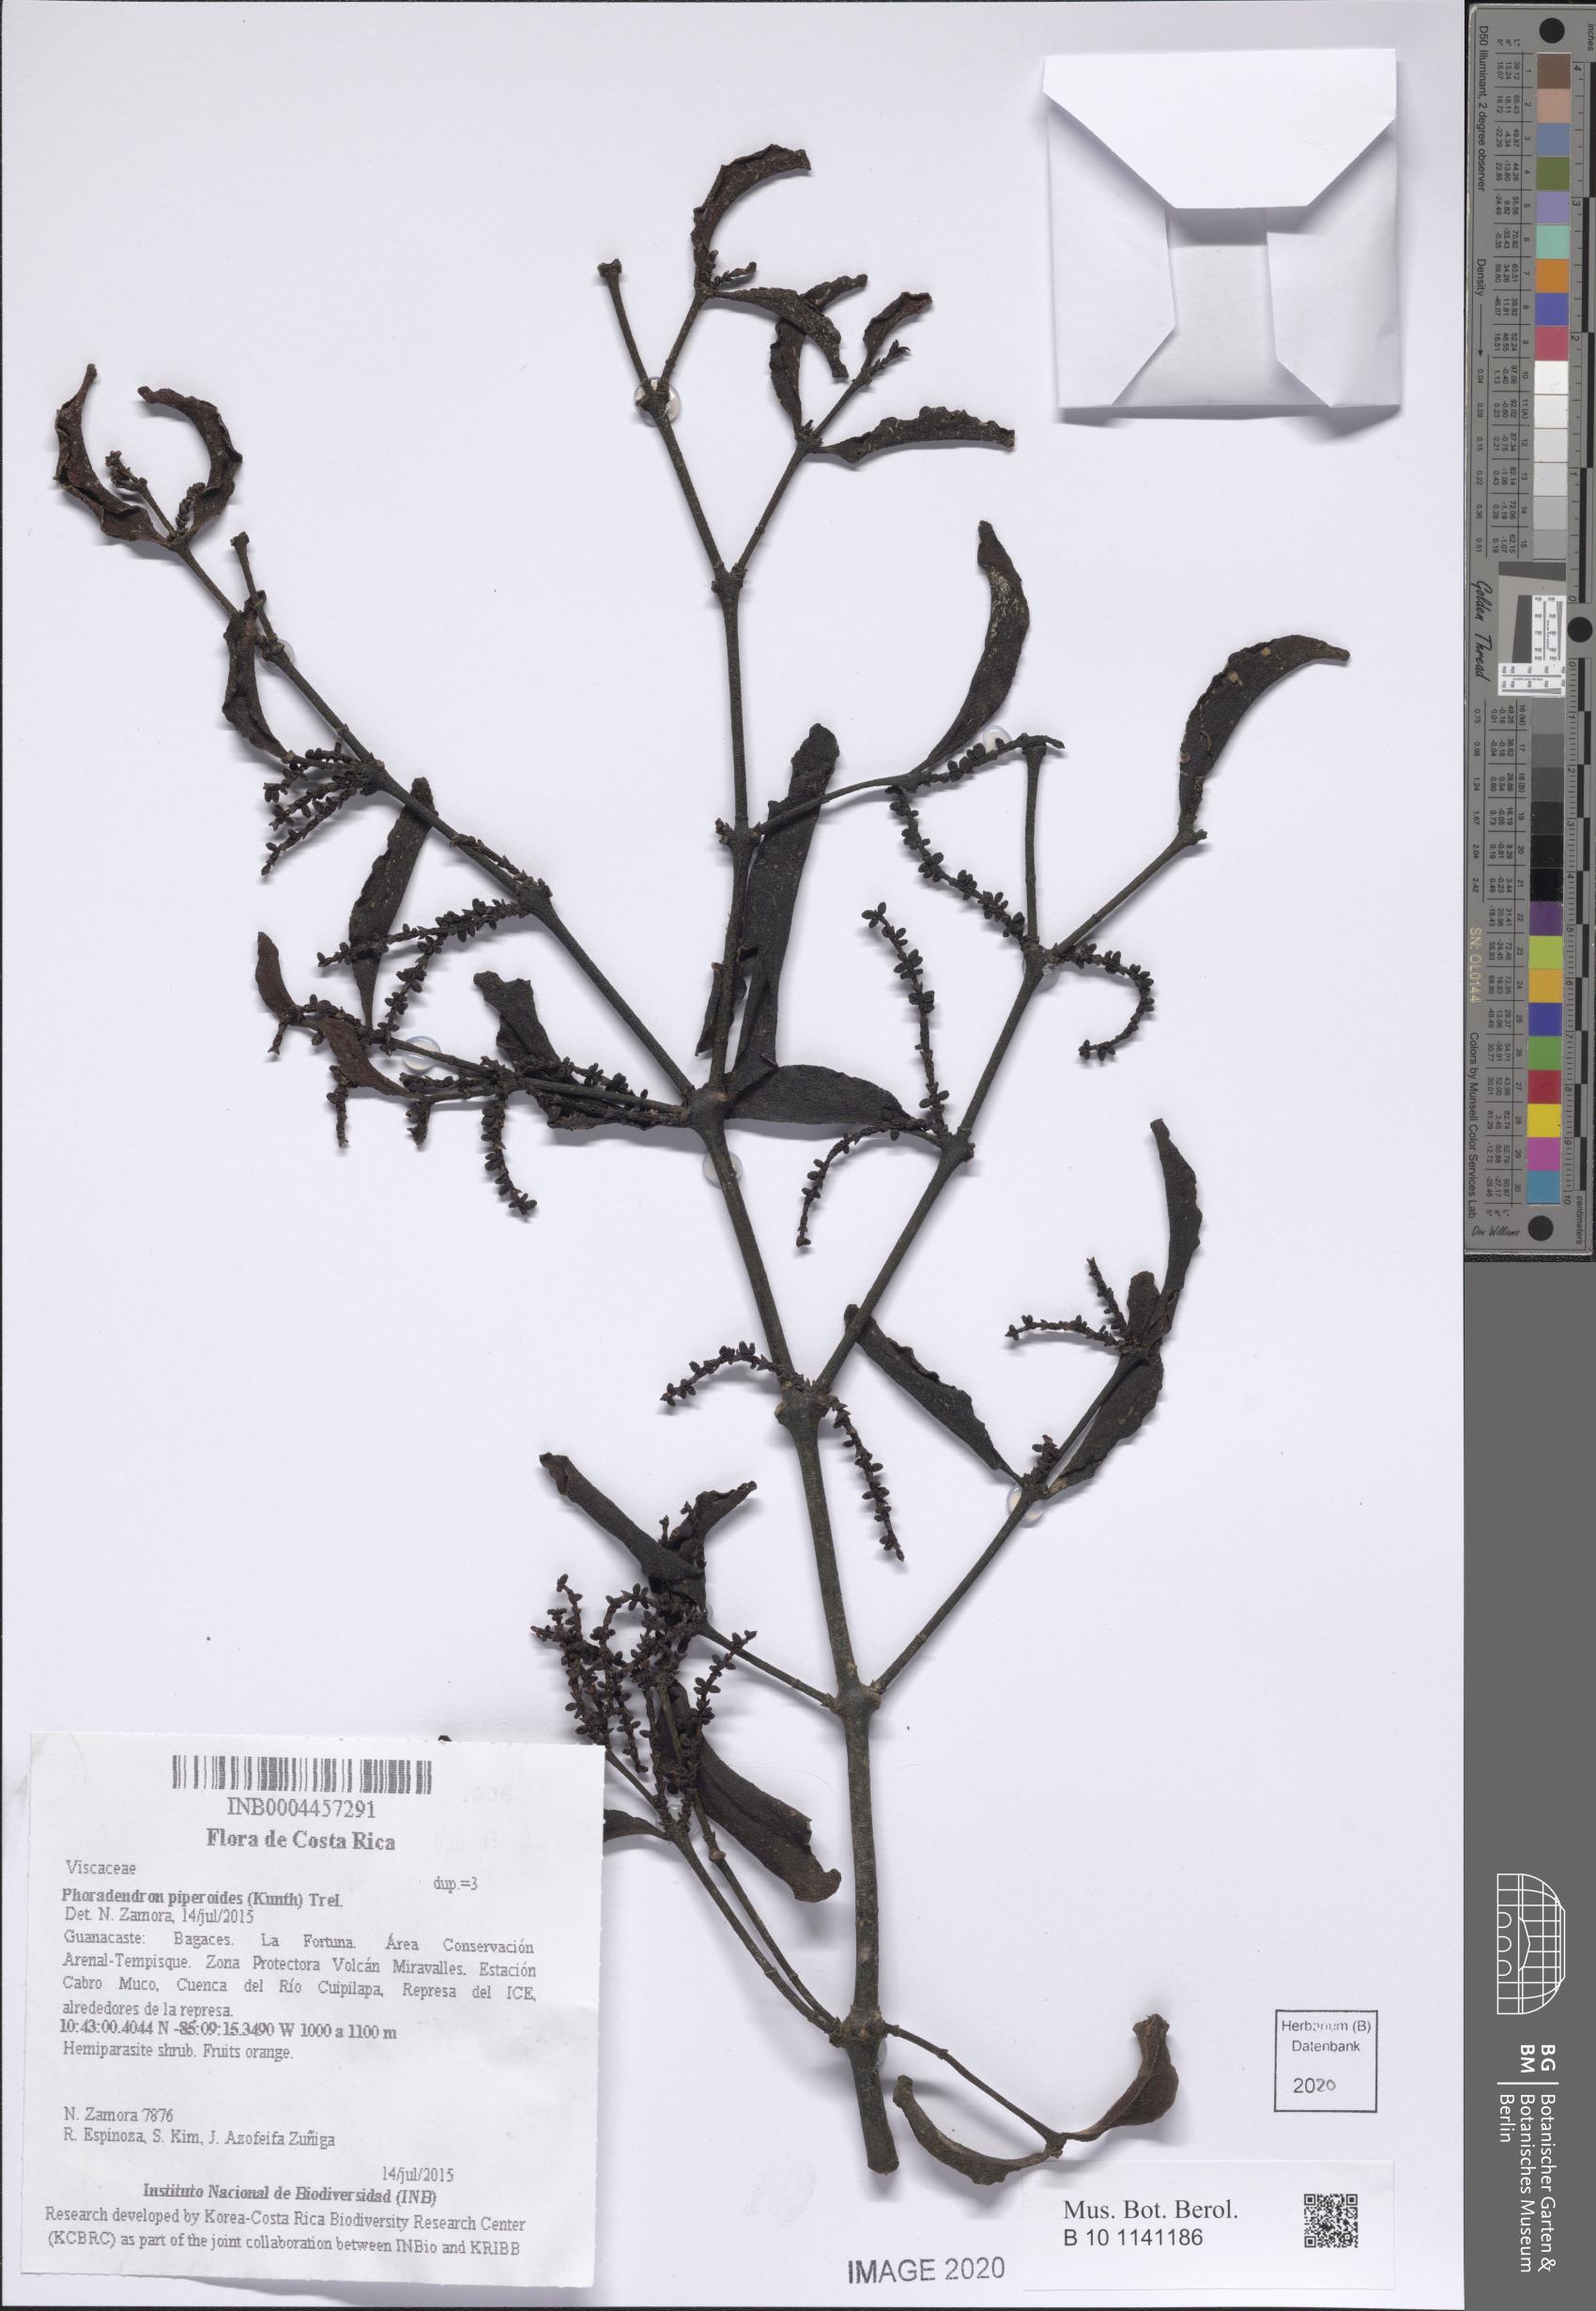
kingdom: Plantae
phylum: Tracheophyta
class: Magnoliopsida
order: Santalales
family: Viscaceae
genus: Phoradendron
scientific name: Phoradendron piperoides
